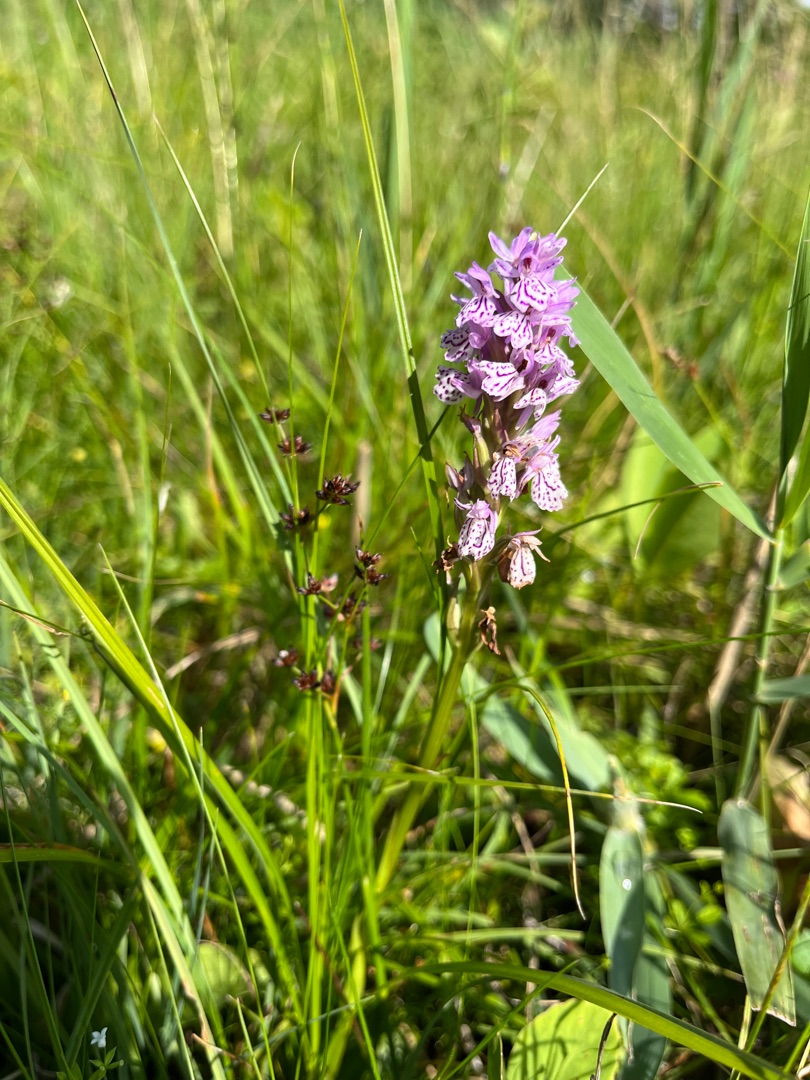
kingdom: Plantae
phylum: Tracheophyta
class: Liliopsida
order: Asparagales
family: Orchidaceae
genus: Dactylorhiza
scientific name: Dactylorhiza maculata
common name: Plettet gøgeurt
